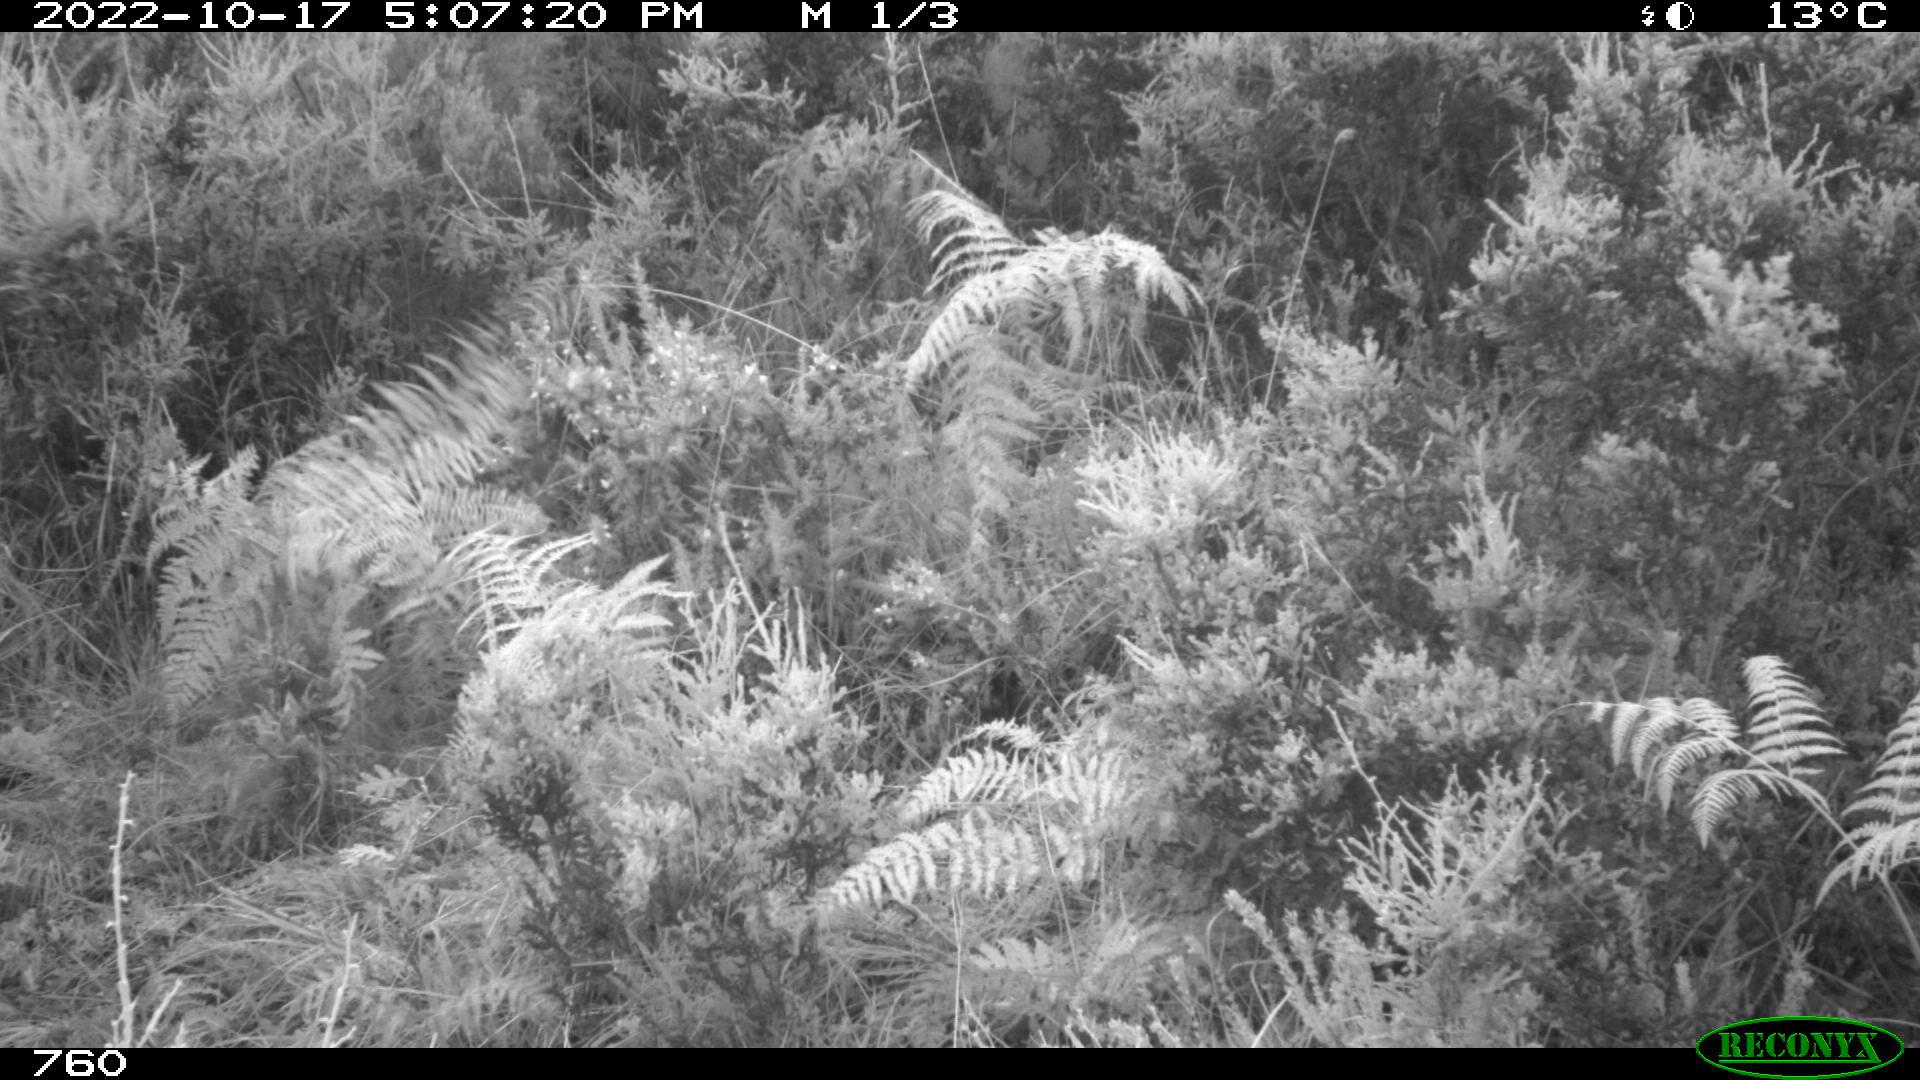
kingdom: Animalia
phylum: Chordata
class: Mammalia
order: Perissodactyla
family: Equidae
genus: Equus
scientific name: Equus caballus
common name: Horse
